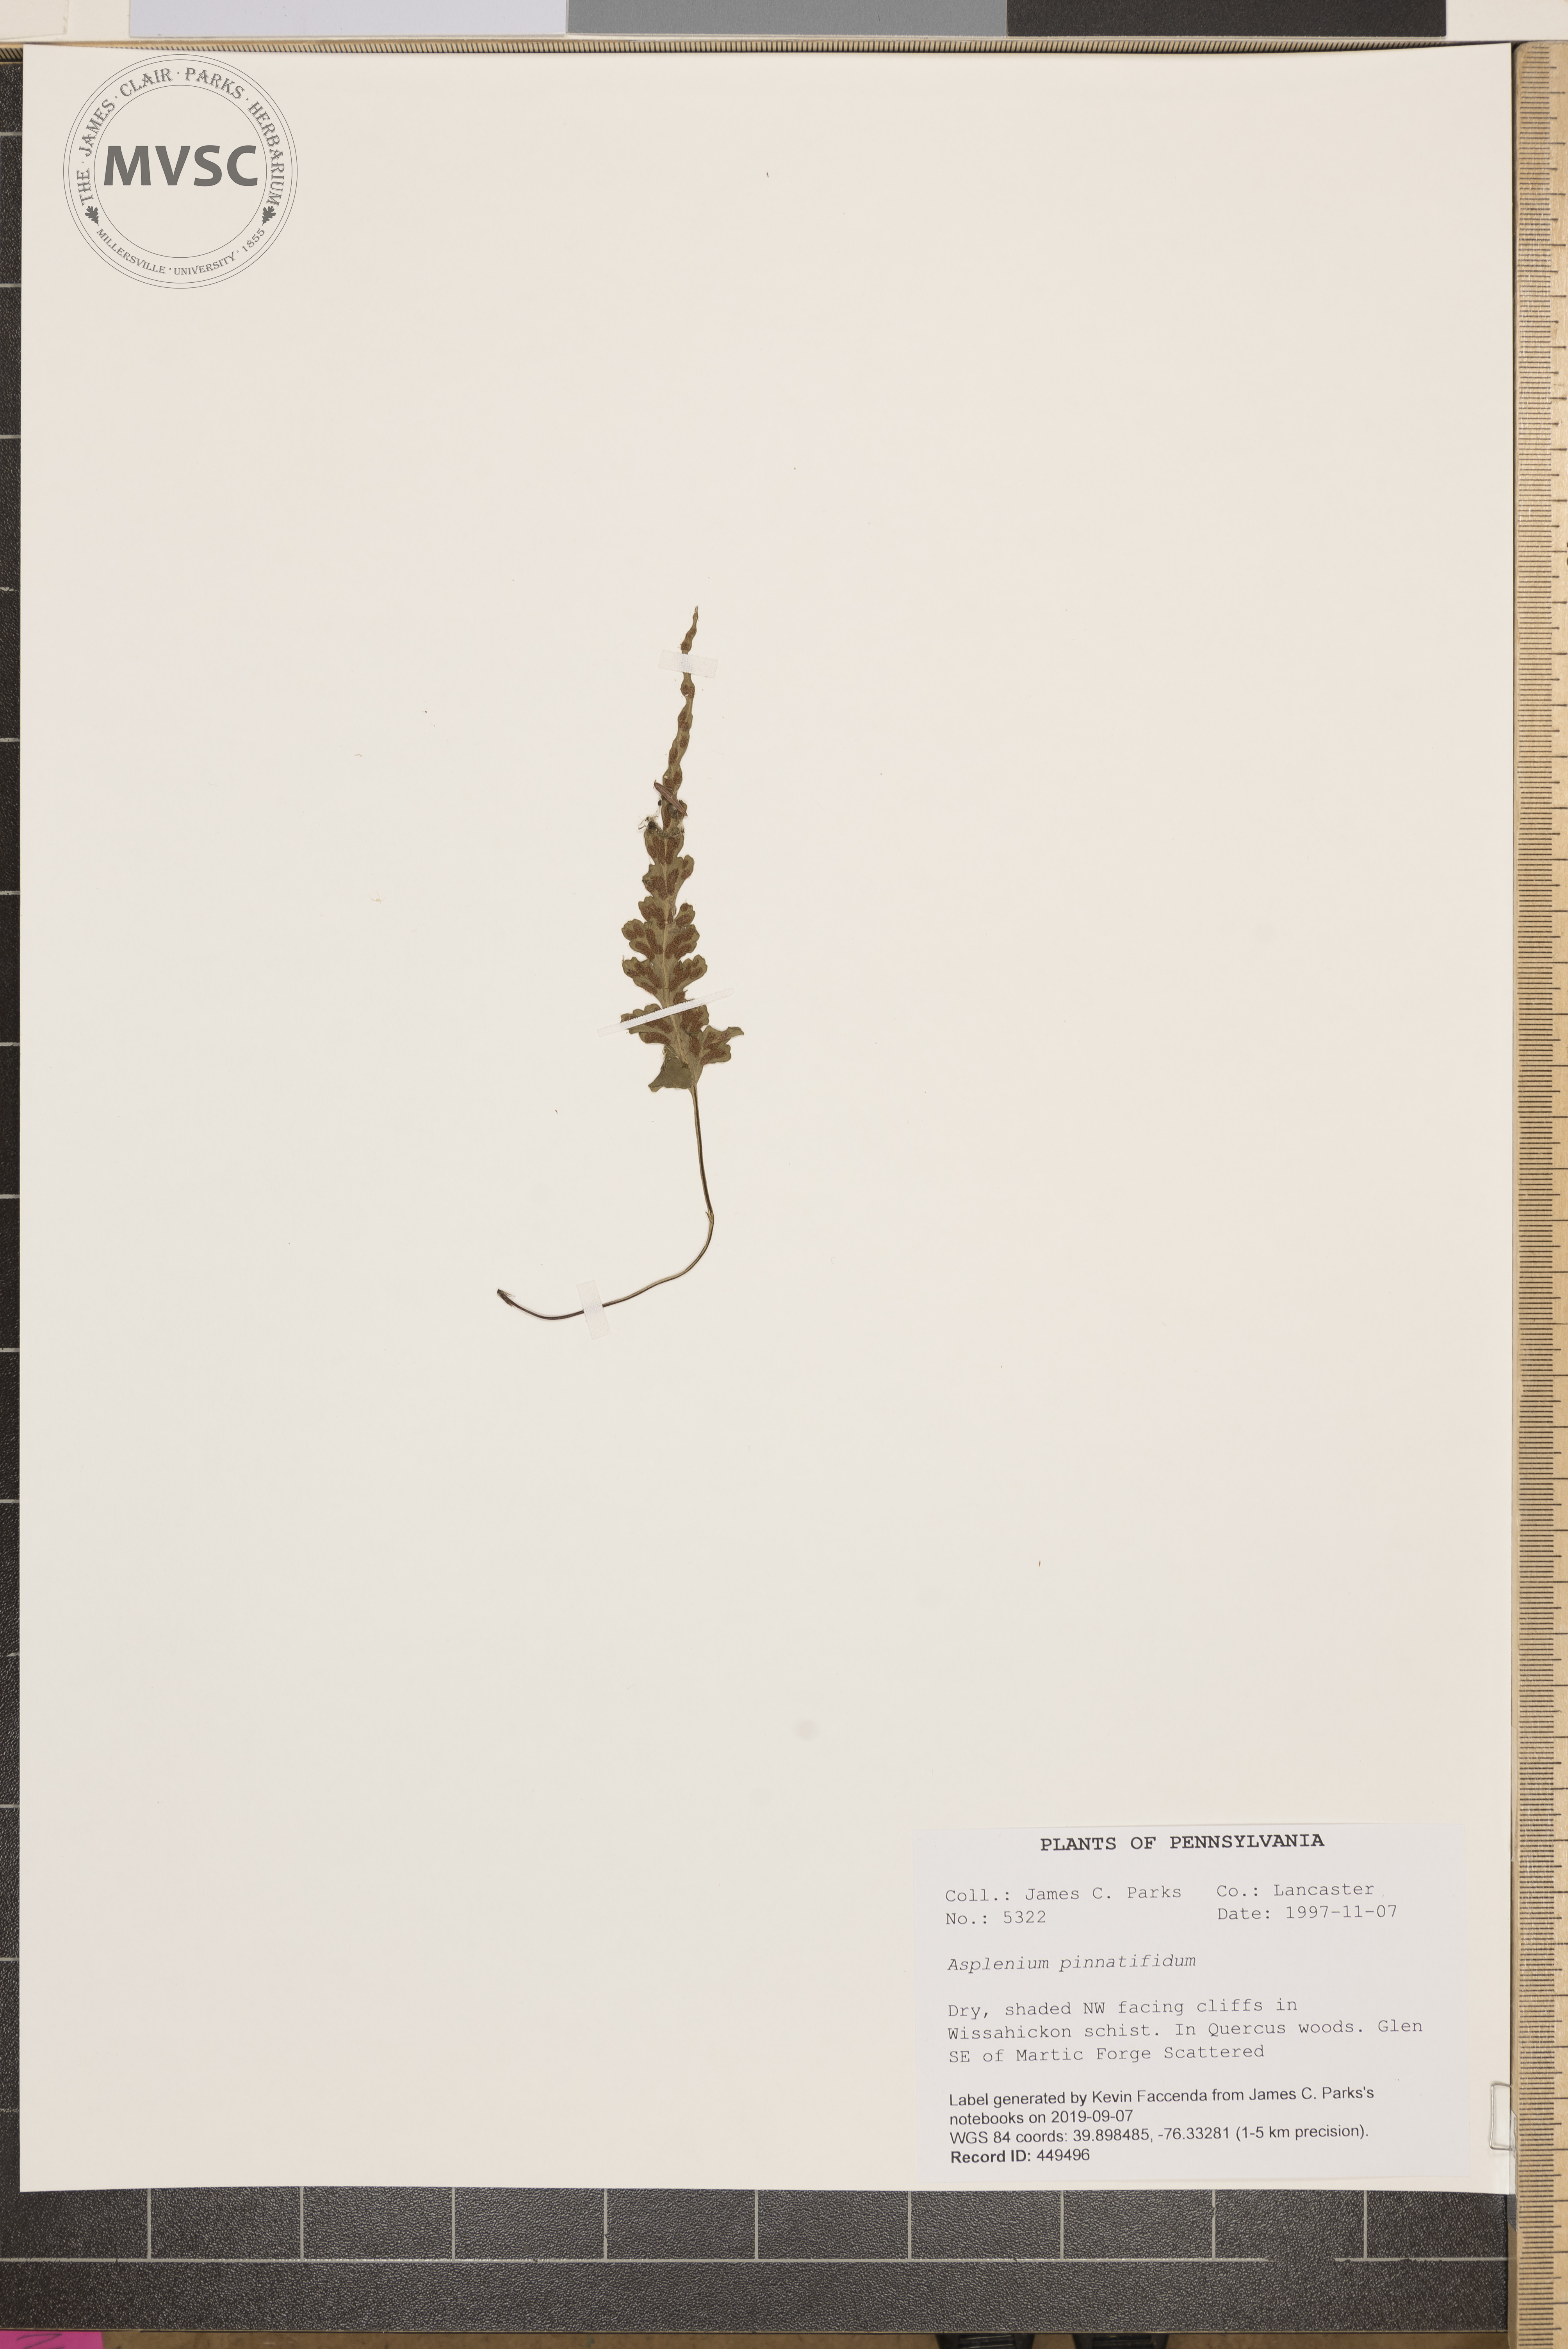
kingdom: Plantae
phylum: Tracheophyta
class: Polypodiopsida
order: Polypodiales
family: Aspleniaceae
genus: Asplenium
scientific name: Asplenium pinnatifidum
